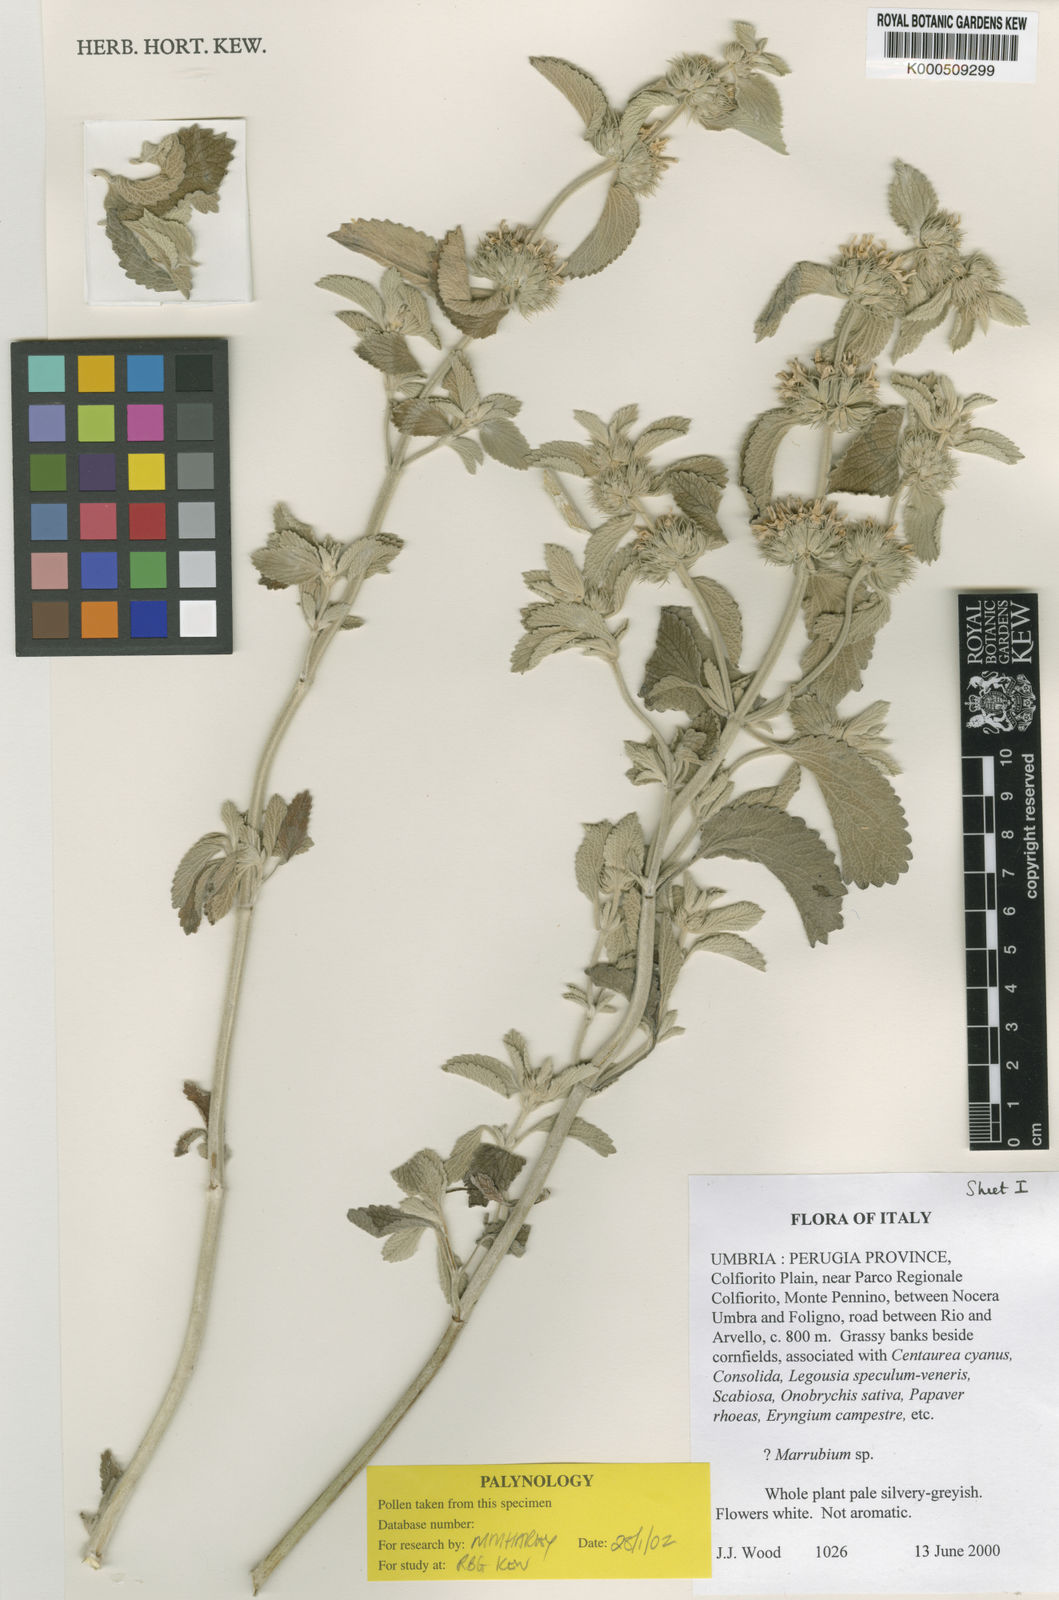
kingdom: Plantae
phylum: Tracheophyta
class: Magnoliopsida
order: Lamiales
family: Lamiaceae
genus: Marrubium
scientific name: Marrubium incanum
